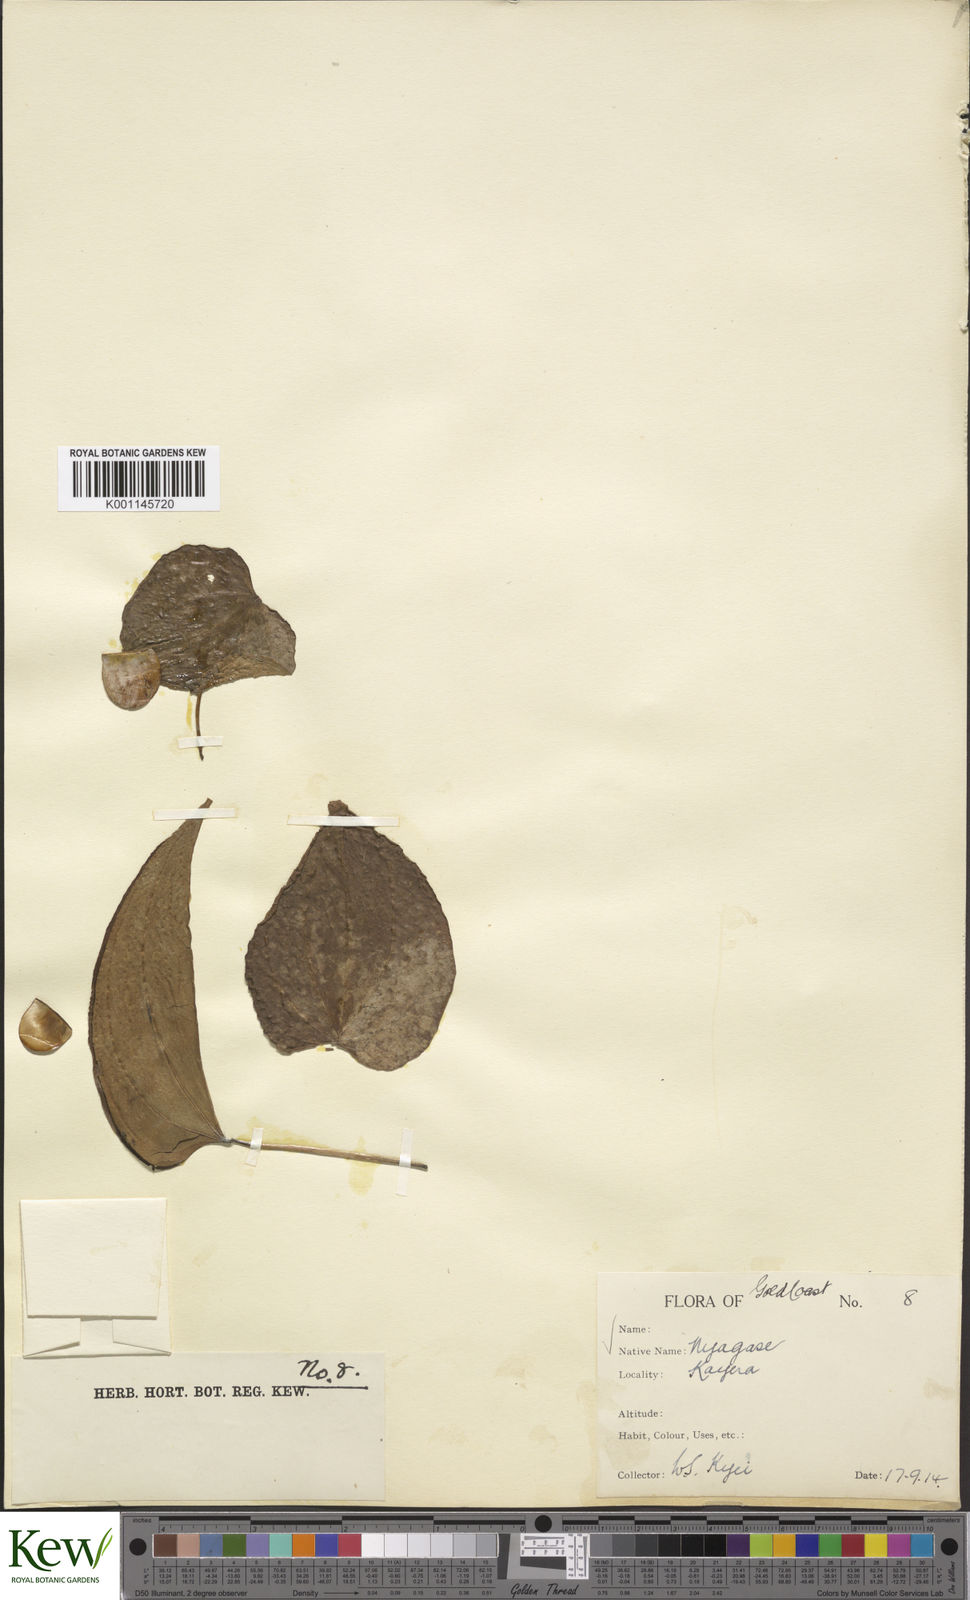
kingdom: Plantae
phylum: Tracheophyta
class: Liliopsida
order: Dioscoreales
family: Dioscoreaceae
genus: Dioscorea
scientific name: Dioscorea cayenensis
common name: Attoto yam
